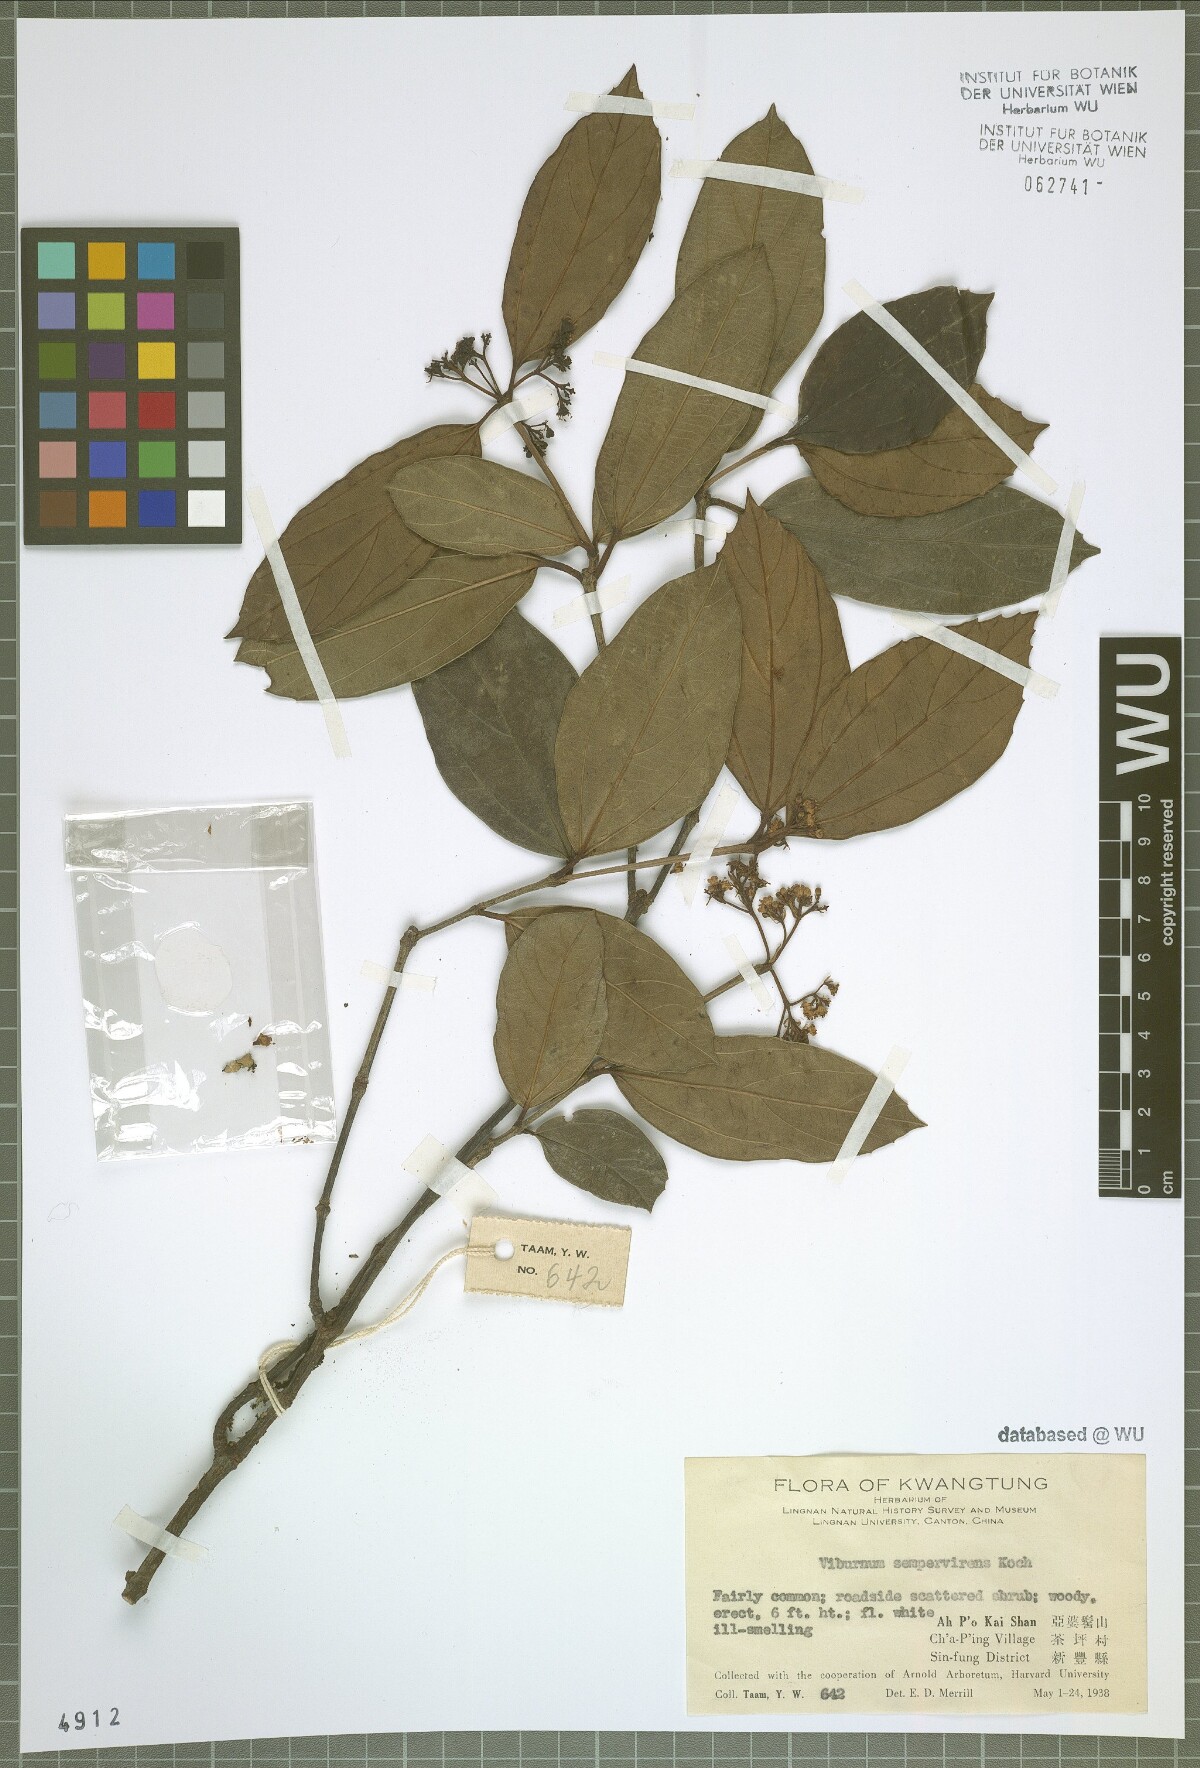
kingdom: Plantae
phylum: Tracheophyta
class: Magnoliopsida
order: Dipsacales
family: Viburnaceae
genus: Viburnum
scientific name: Viburnum sempervirens
